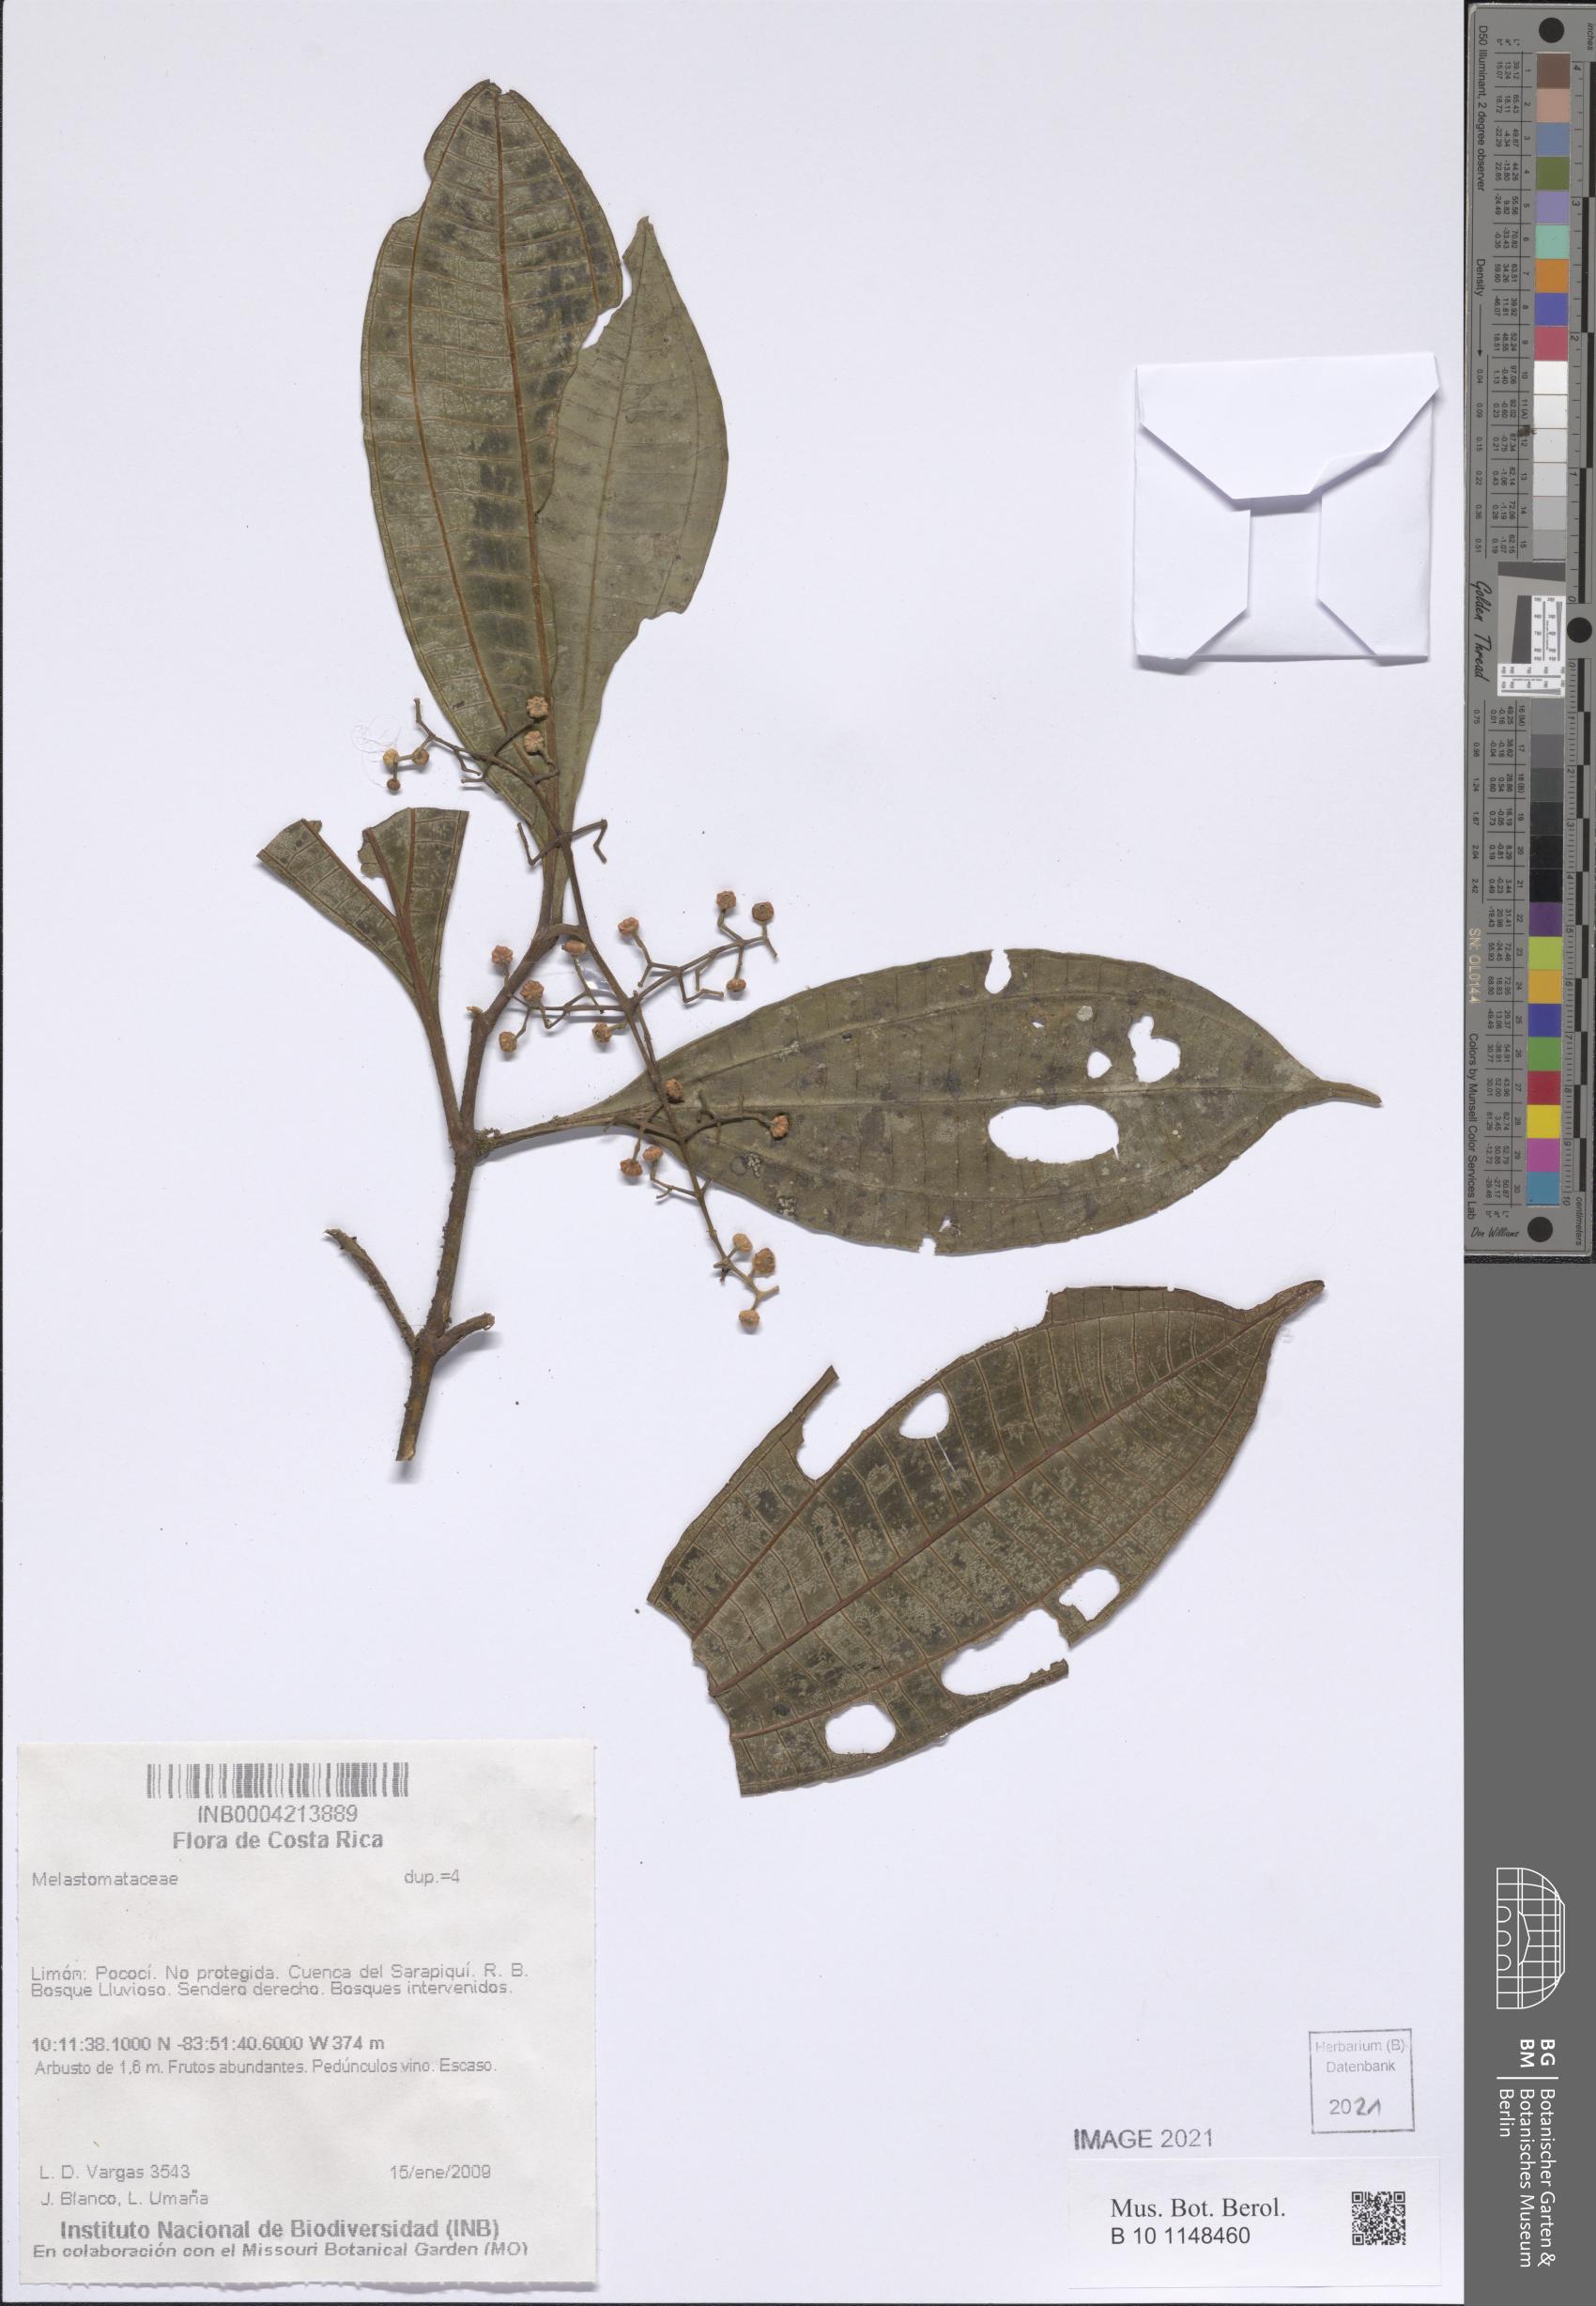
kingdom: Plantae
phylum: Tracheophyta
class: Magnoliopsida
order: Myrtales
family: Melastomataceae
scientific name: Melastomataceae
